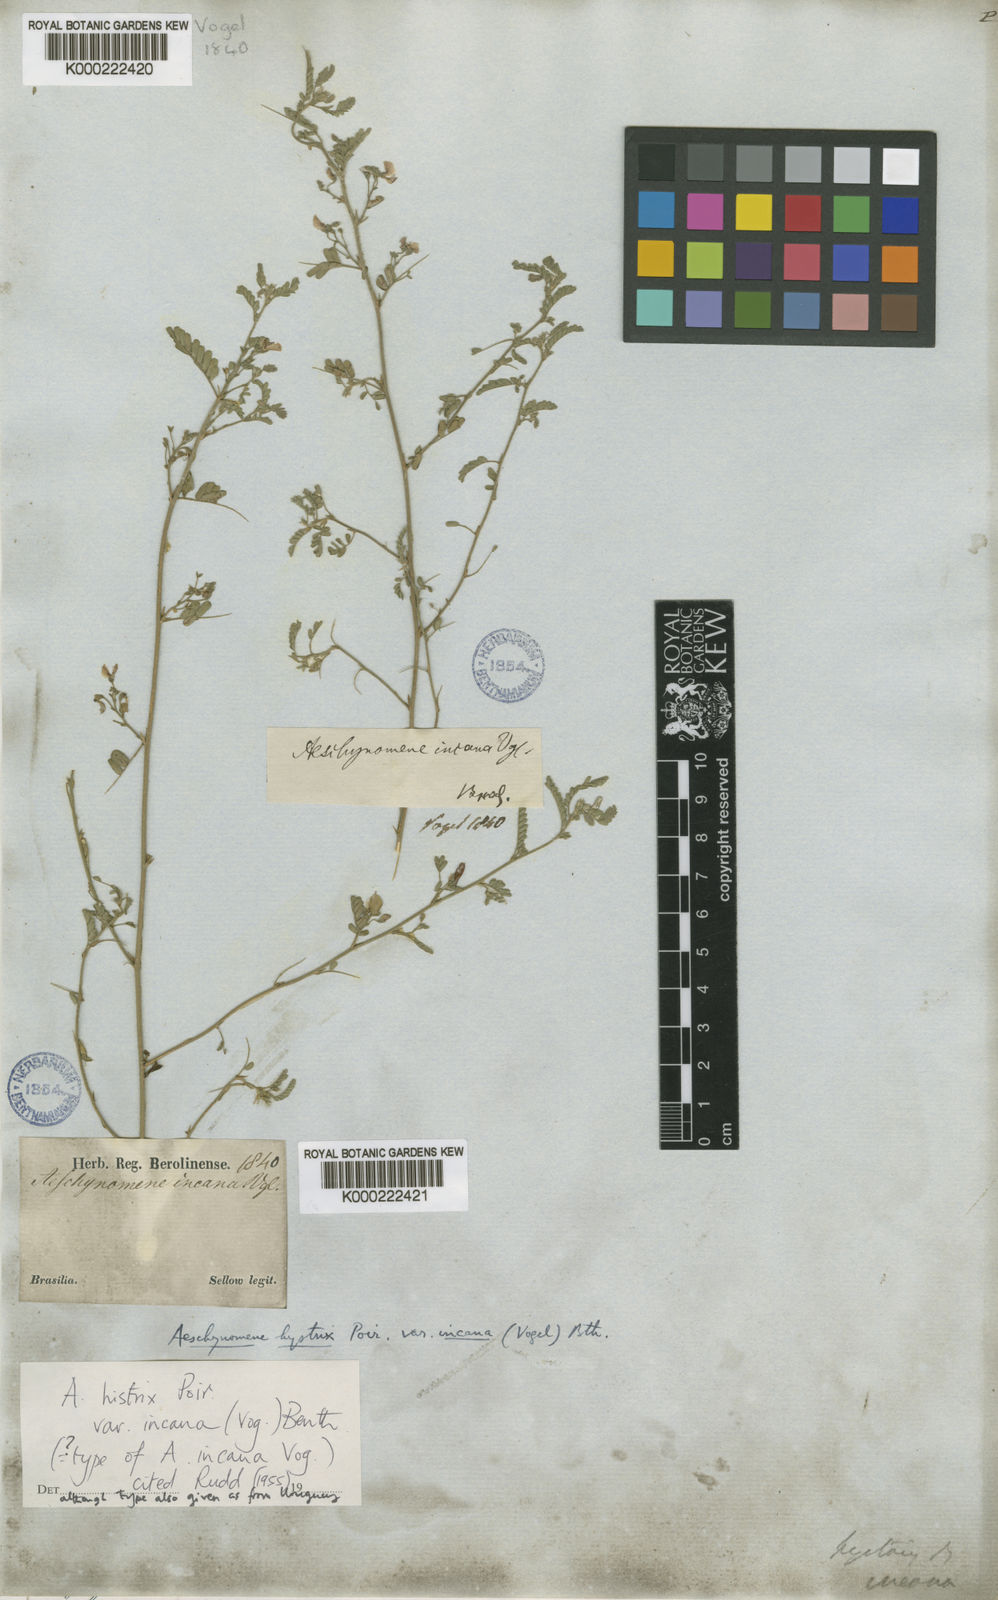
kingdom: Plantae
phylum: Tracheophyta
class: Magnoliopsida
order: Fabales
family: Fabaceae
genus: Ctenodon
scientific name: Ctenodon histrix
